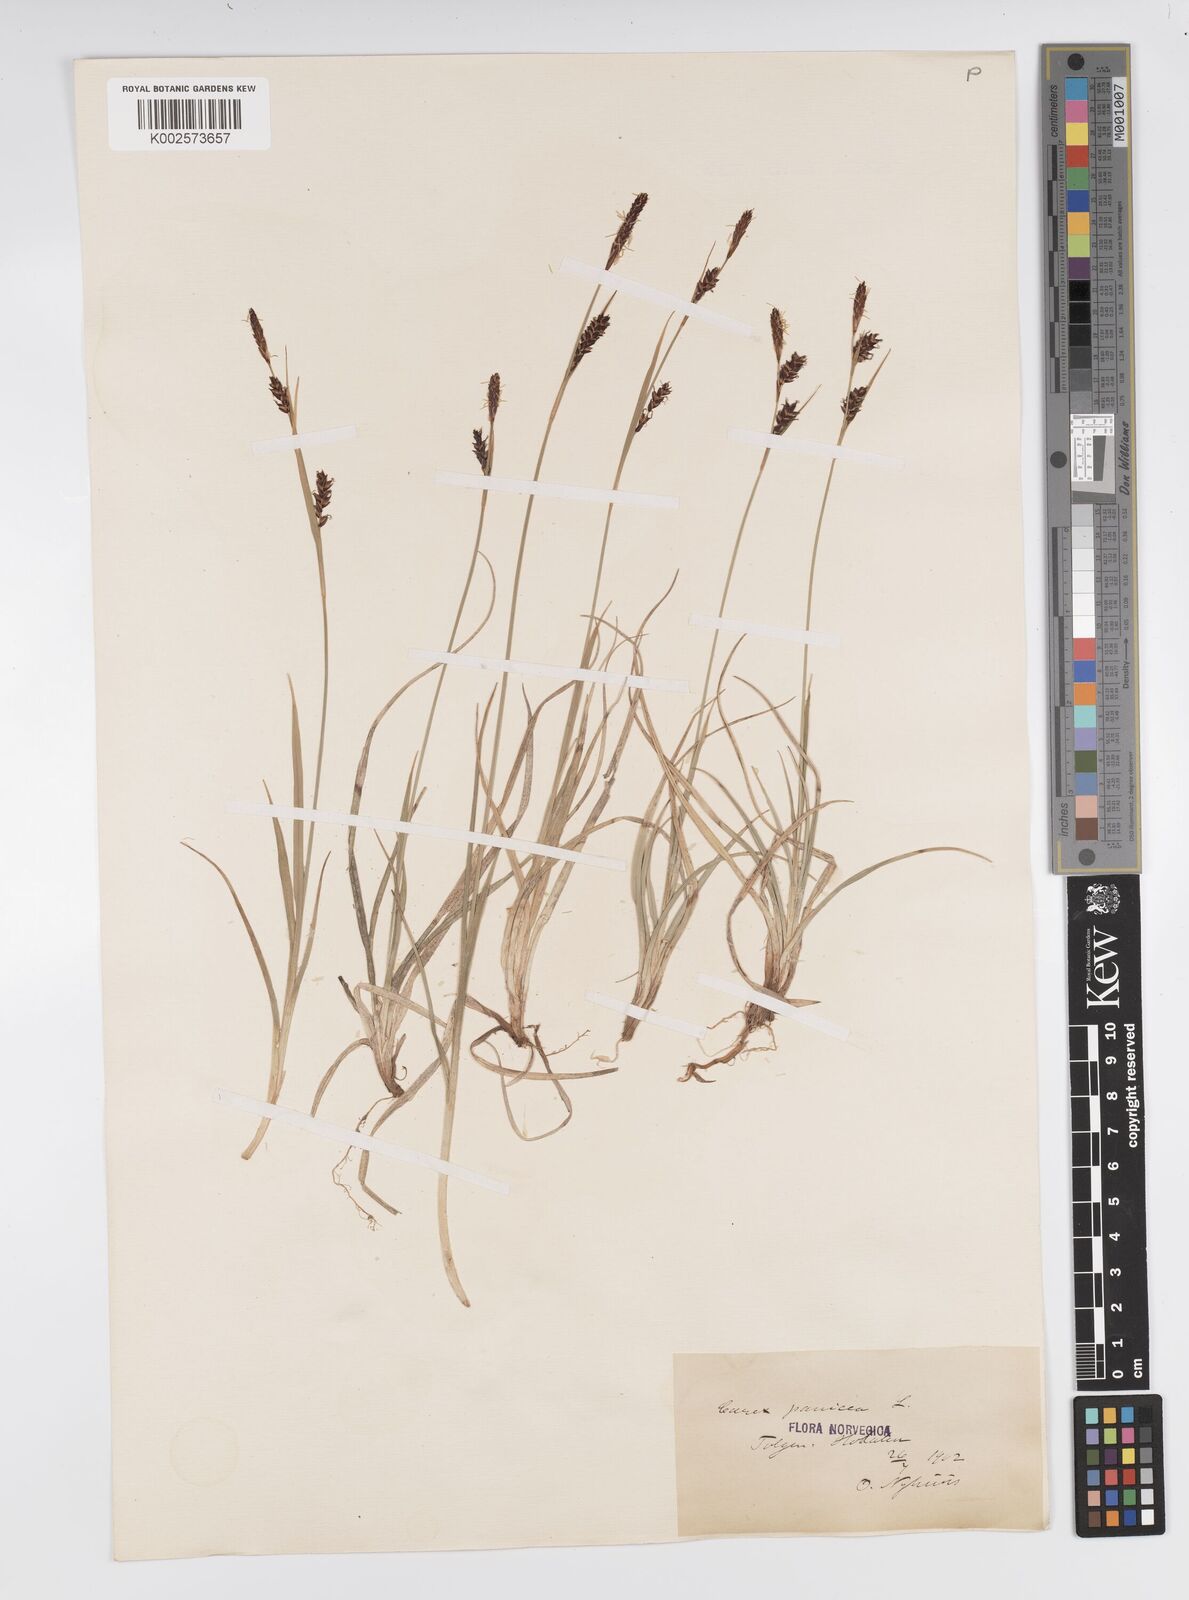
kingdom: Plantae
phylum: Tracheophyta
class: Liliopsida
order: Poales
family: Cyperaceae
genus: Carex
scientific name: Carex panicea
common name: Carnation sedge
